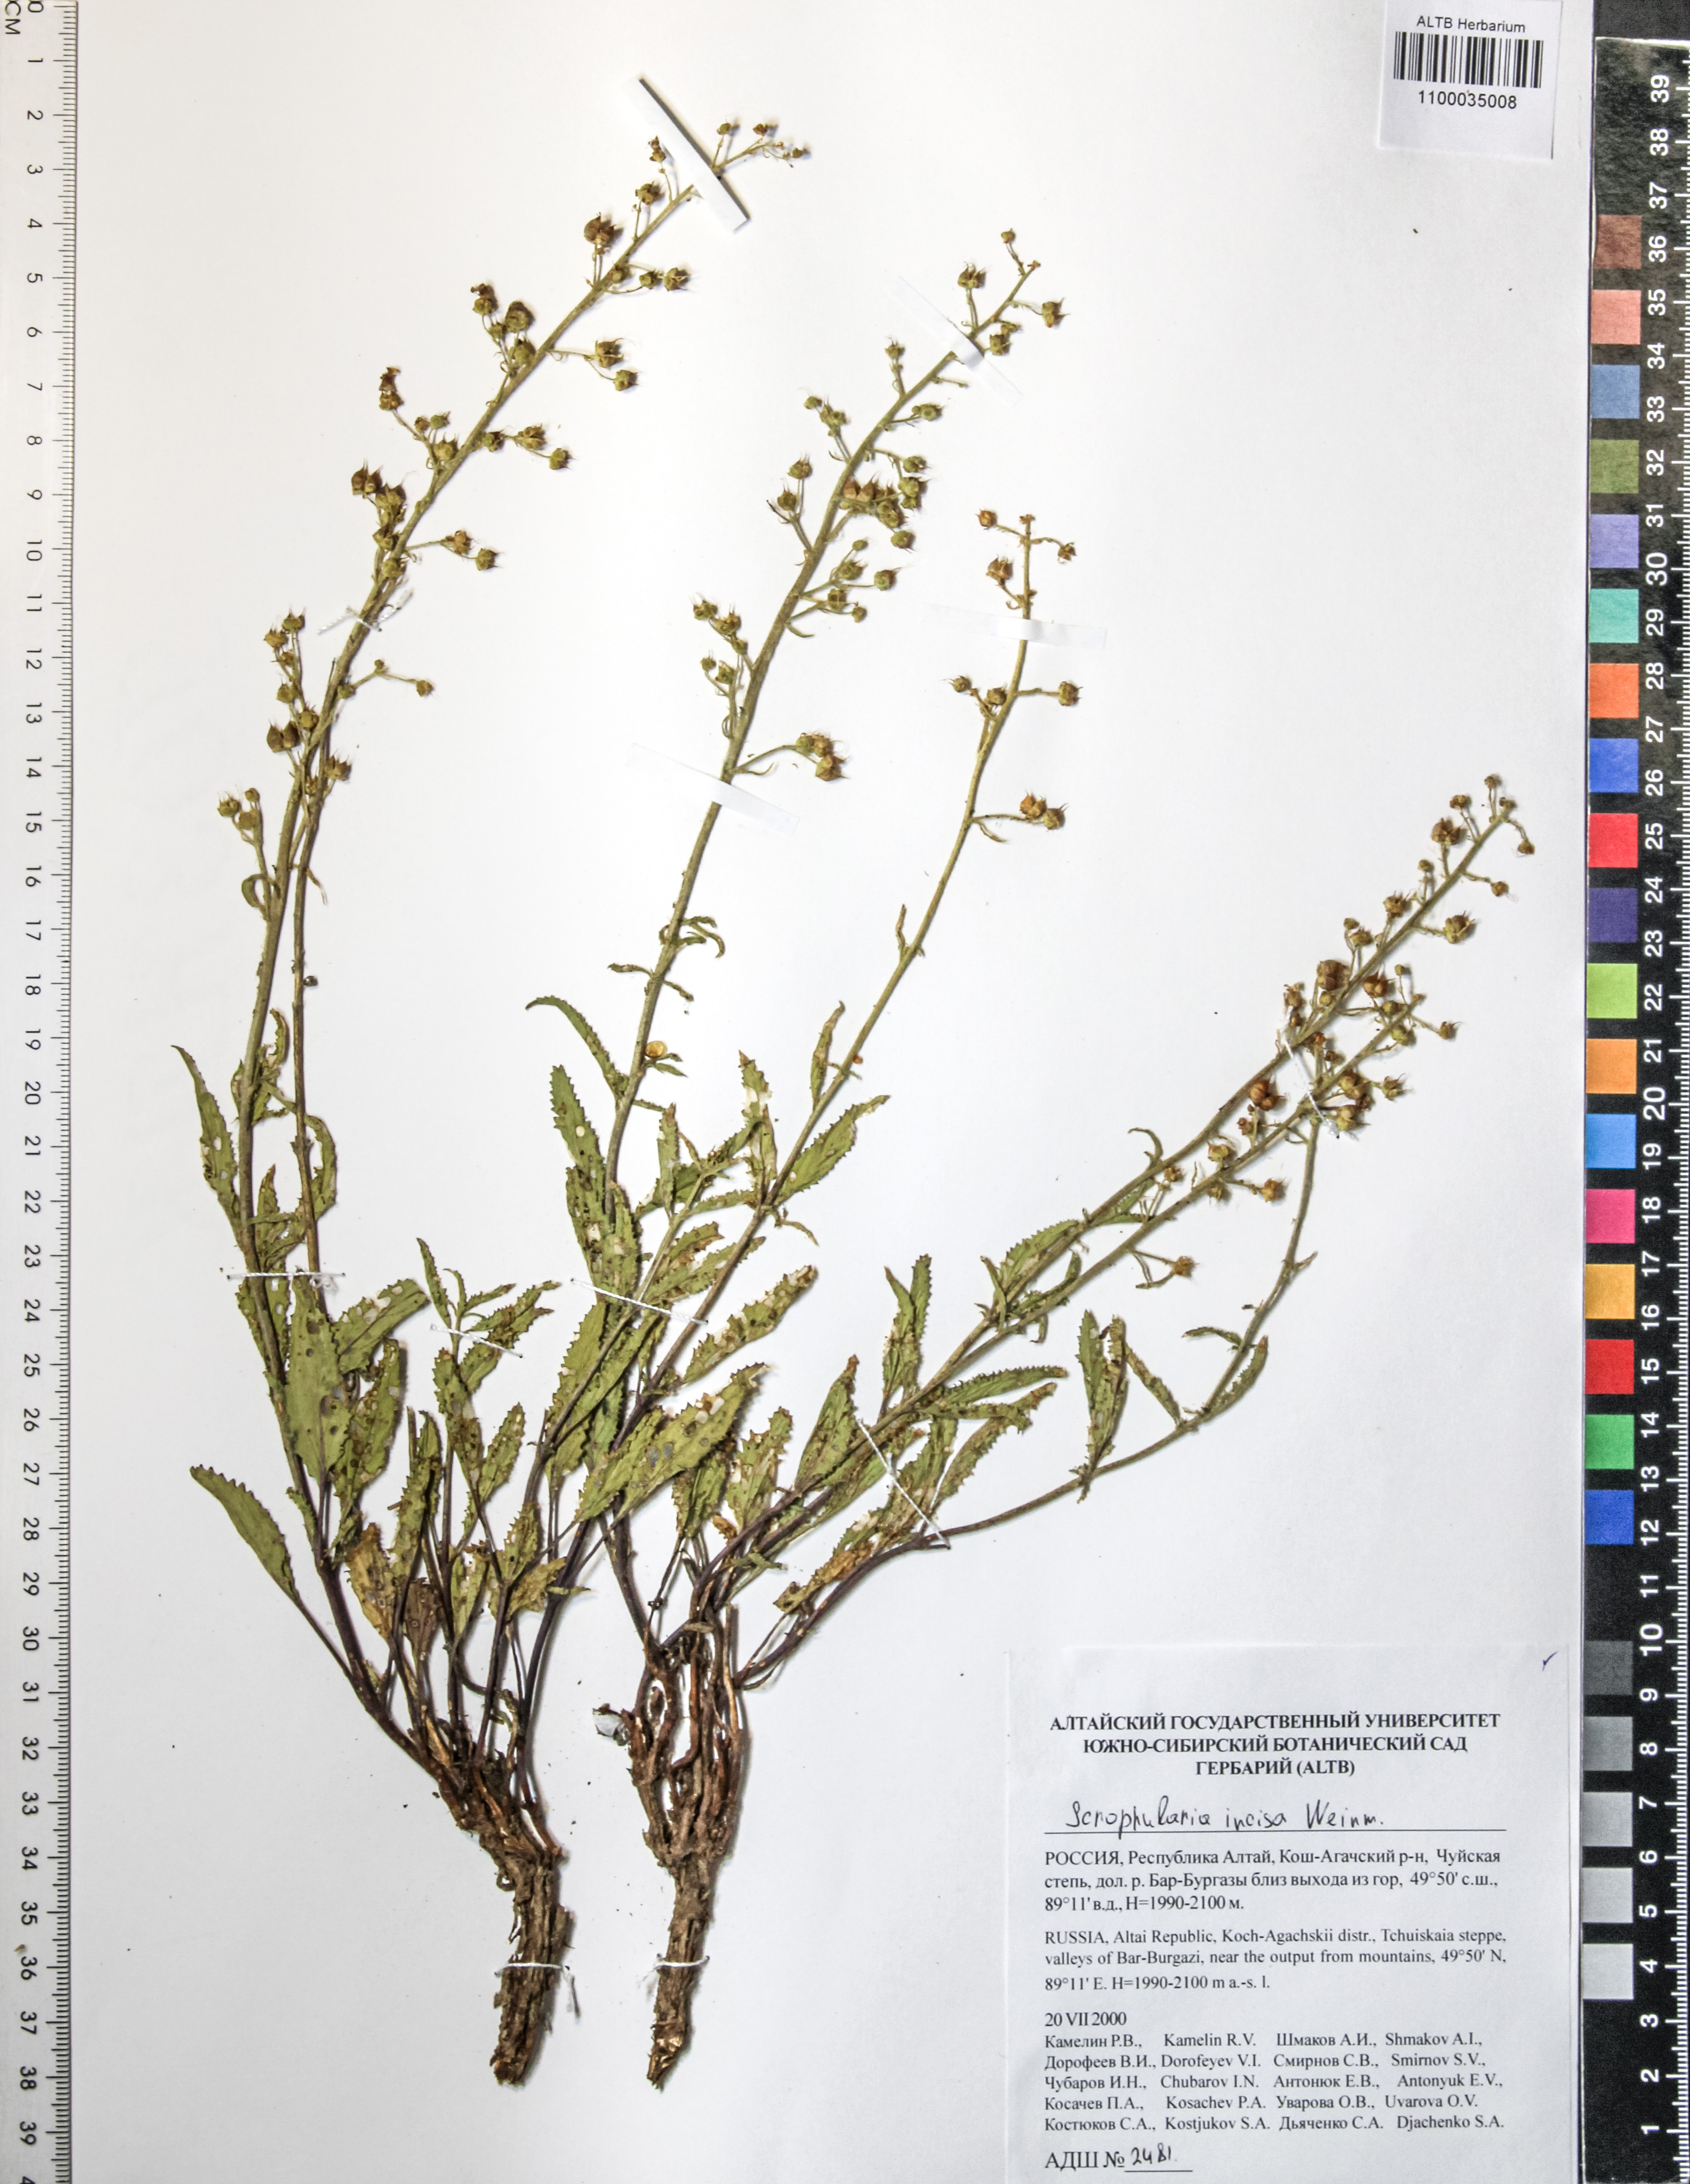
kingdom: Plantae
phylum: Tracheophyta
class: Magnoliopsida
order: Lamiales
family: Scrophulariaceae
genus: Scrophularia
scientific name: Scrophularia incisa
